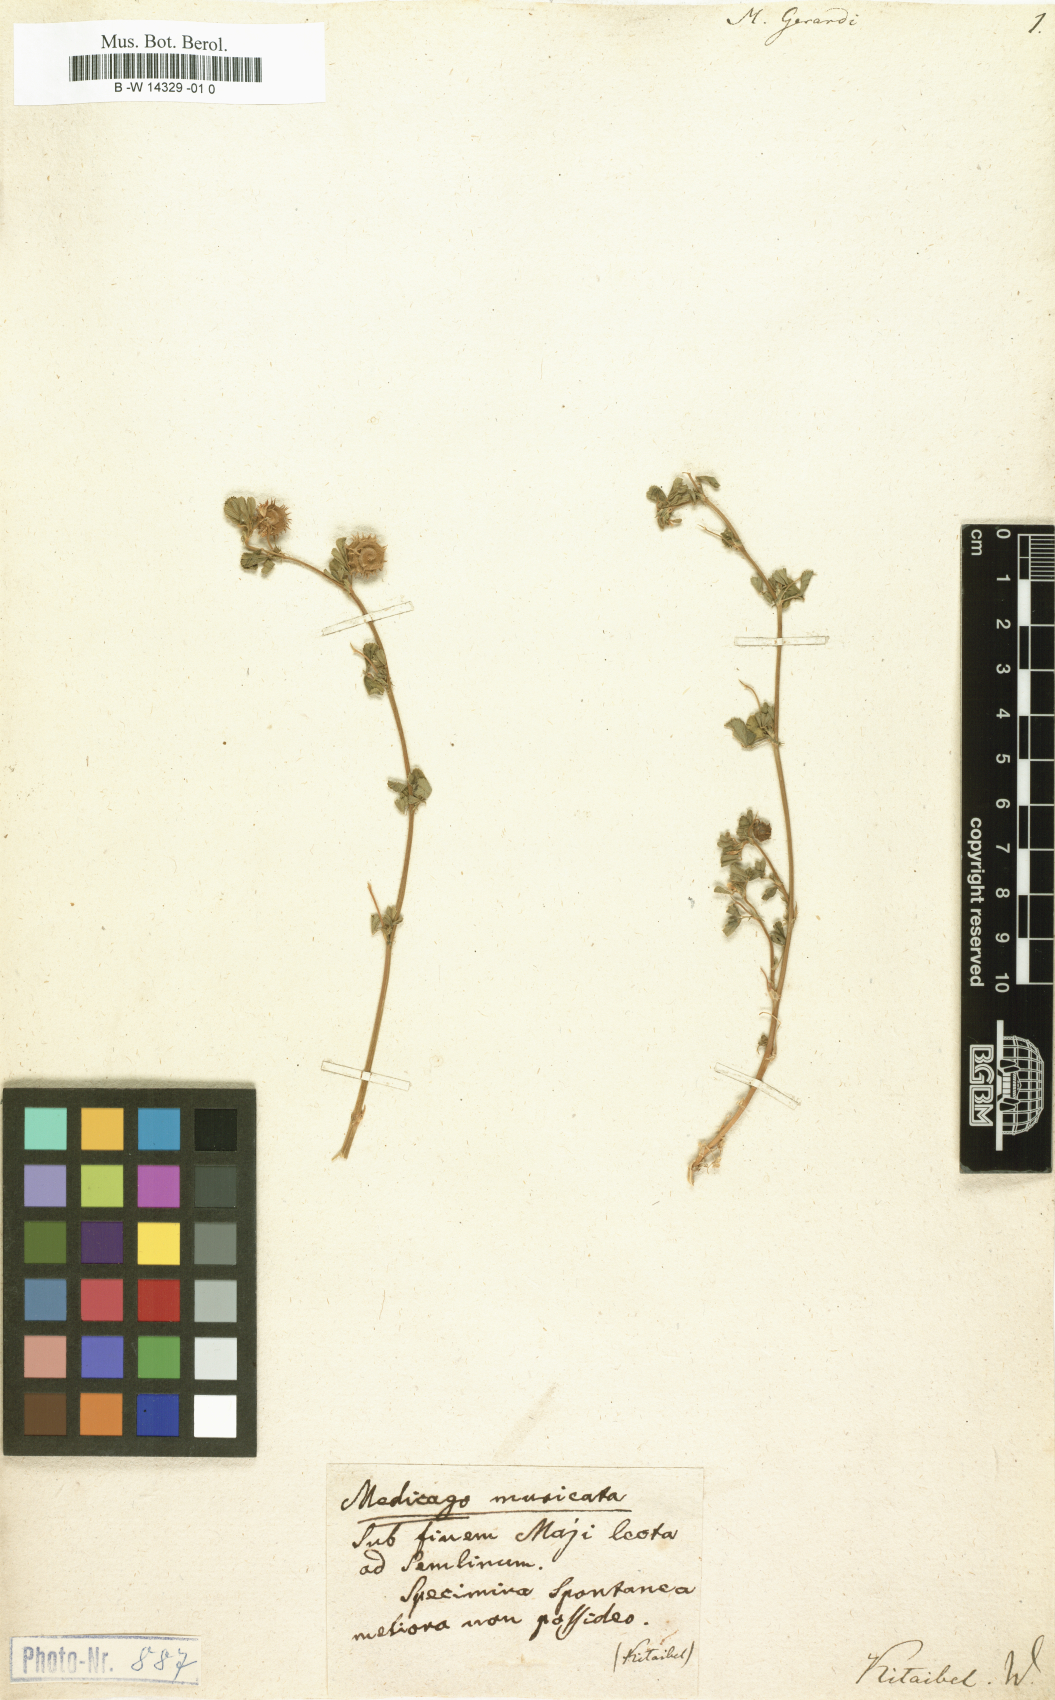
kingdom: Plantae
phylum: Tracheophyta
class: Magnoliopsida
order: Fabales
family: Fabaceae
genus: Medicago
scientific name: Medicago rigidula
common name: Tifton medic
